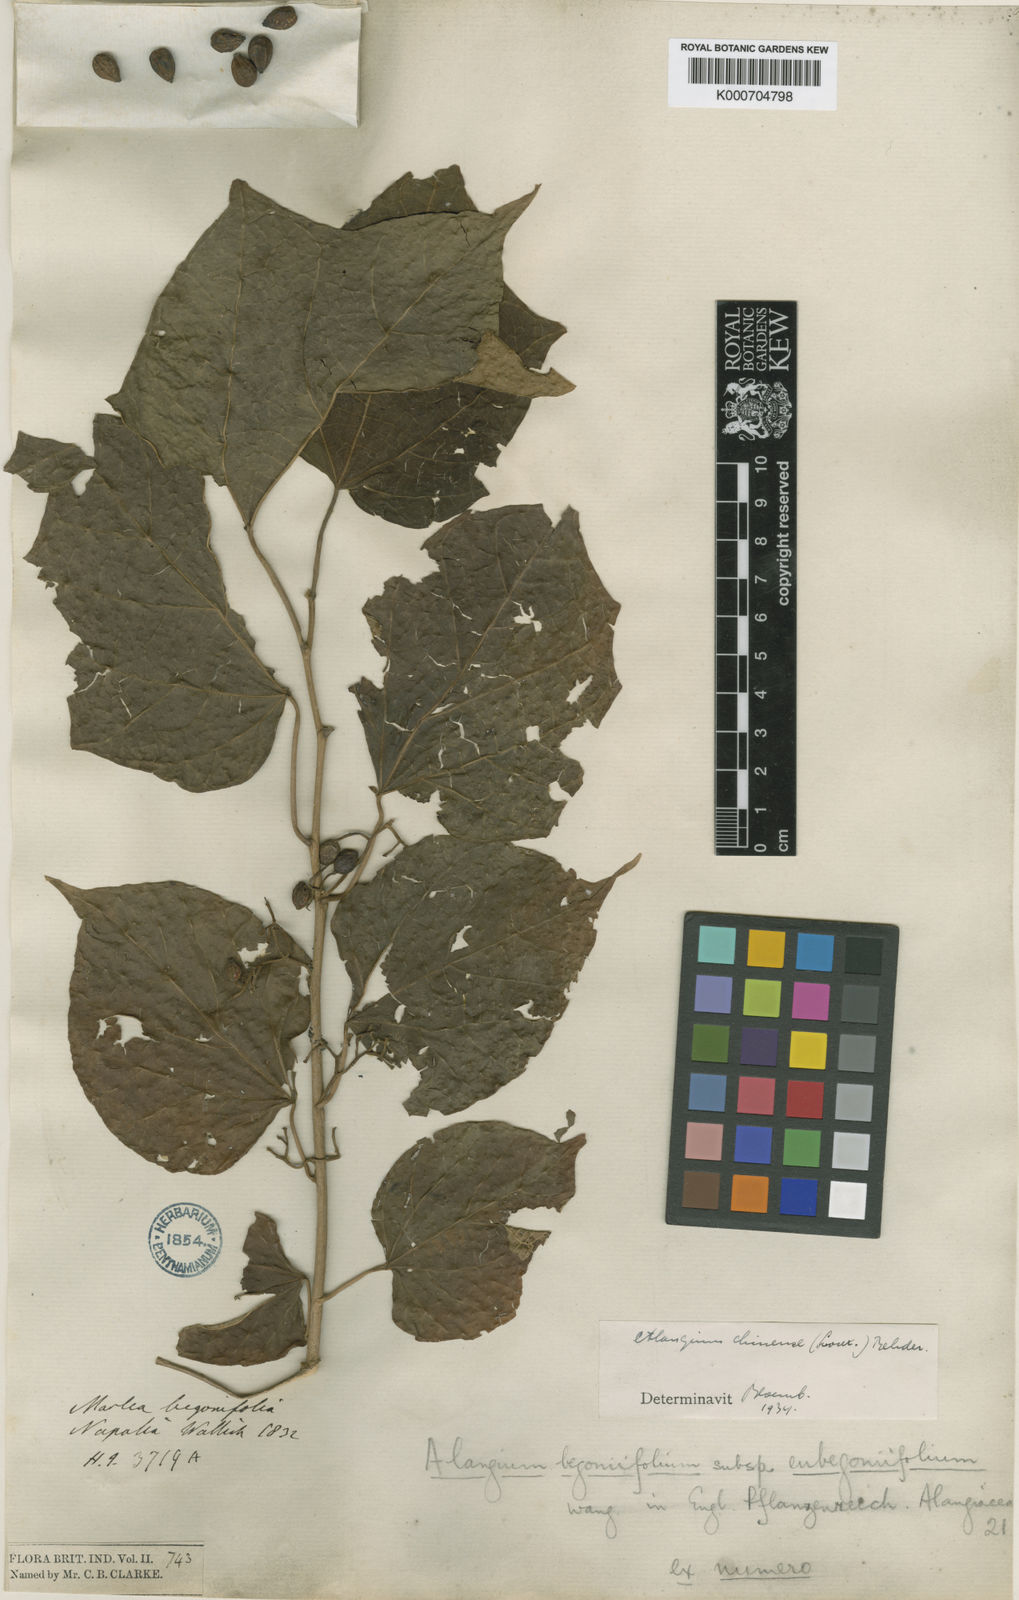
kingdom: Plantae
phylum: Tracheophyta
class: Magnoliopsida
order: Cornales
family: Cornaceae
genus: Alangium
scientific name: Alangium chinense
